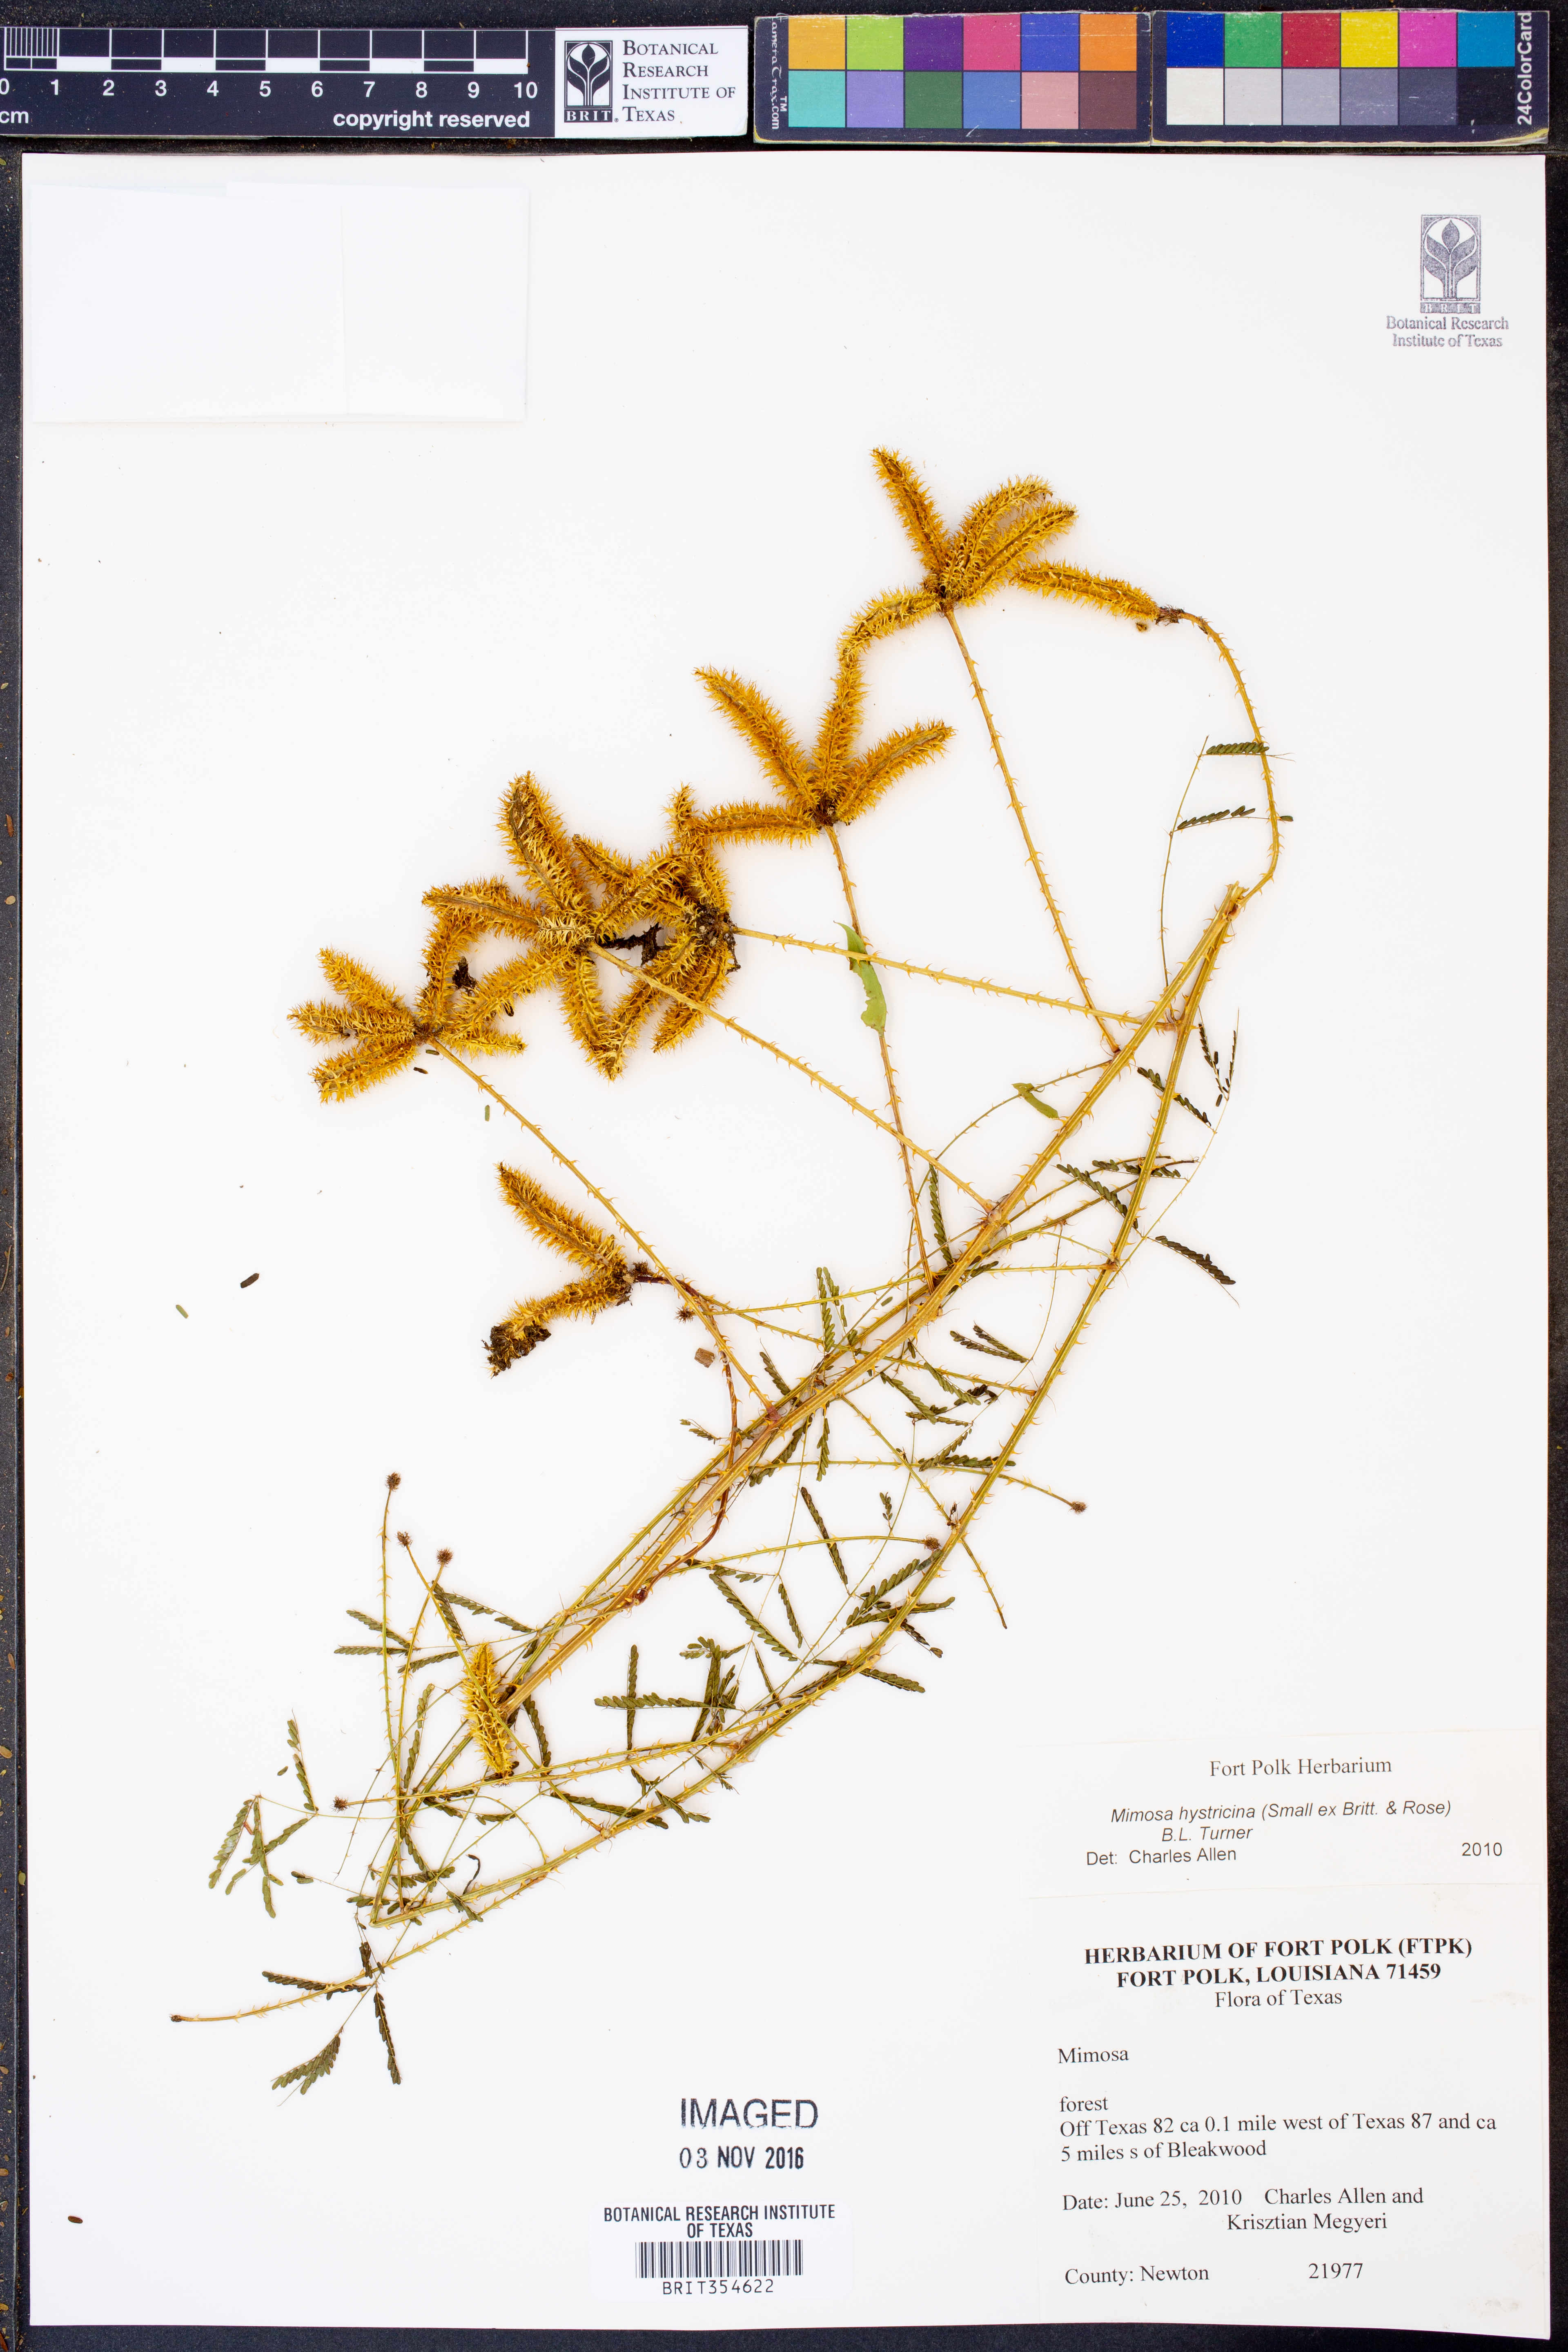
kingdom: Plantae
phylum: Tracheophyta
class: Magnoliopsida
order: Fabales
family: Fabaceae
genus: Mimosa
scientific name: Mimosa hystricina
